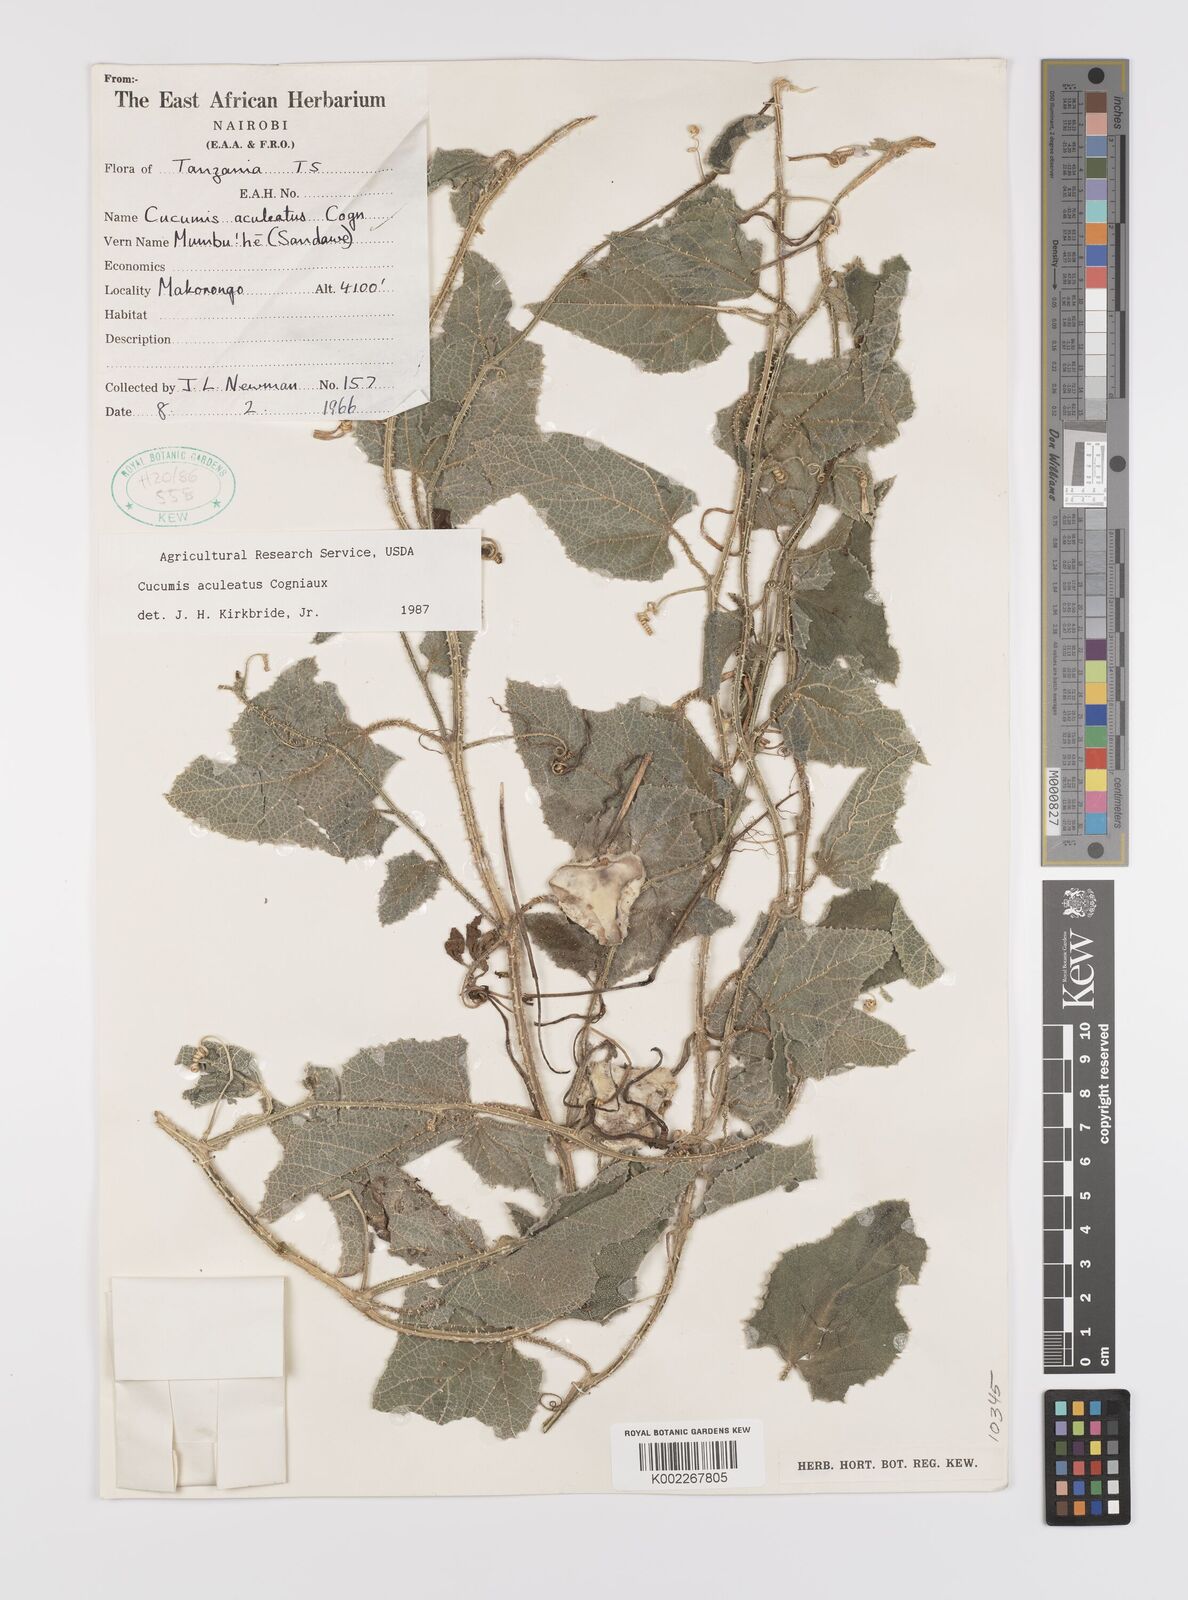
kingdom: Plantae
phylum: Tracheophyta
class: Magnoliopsida
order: Cucurbitales
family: Cucurbitaceae
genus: Cucumis
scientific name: Cucumis aculeatus
